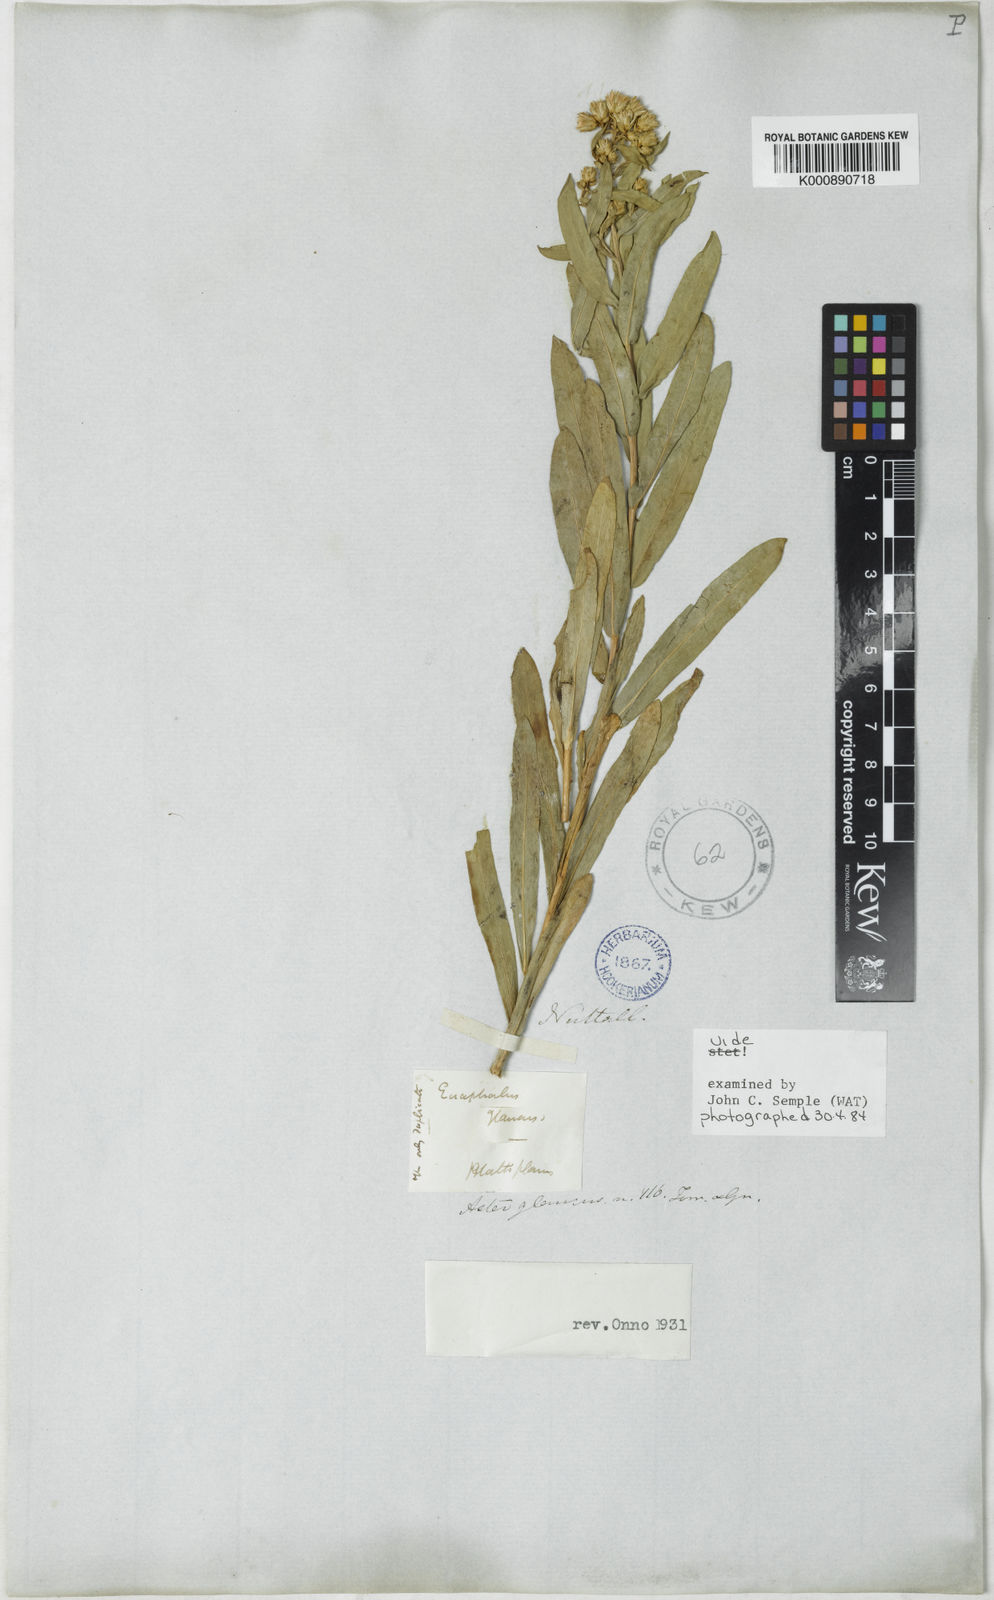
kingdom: Plantae
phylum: Tracheophyta
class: Magnoliopsida
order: Asterales
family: Asteraceae
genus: Aster
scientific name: Aster
